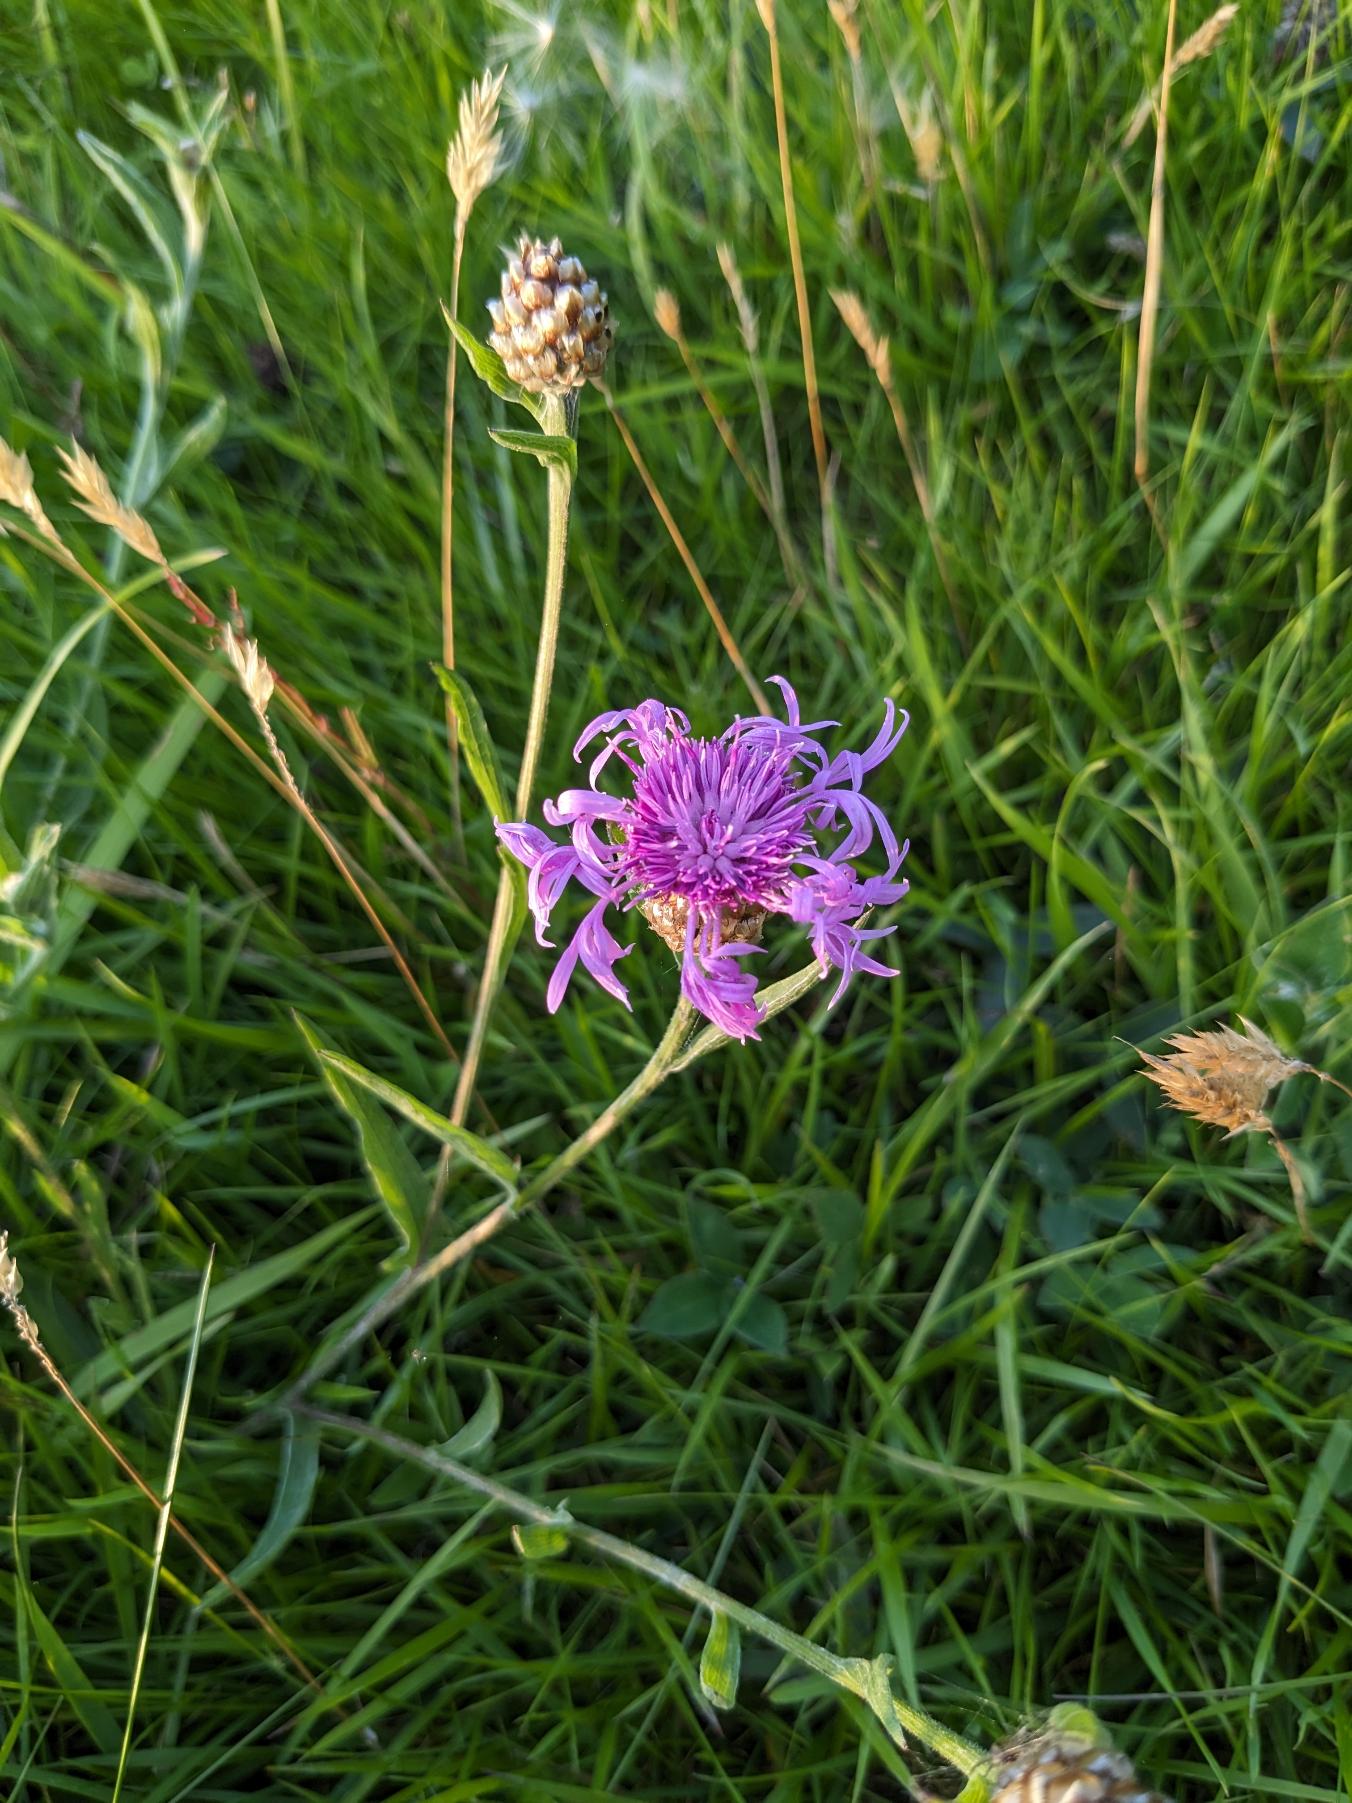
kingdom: Plantae
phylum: Tracheophyta
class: Magnoliopsida
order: Asterales
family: Asteraceae
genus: Centaurea
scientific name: Centaurea jacea
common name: Almindelig knopurt
